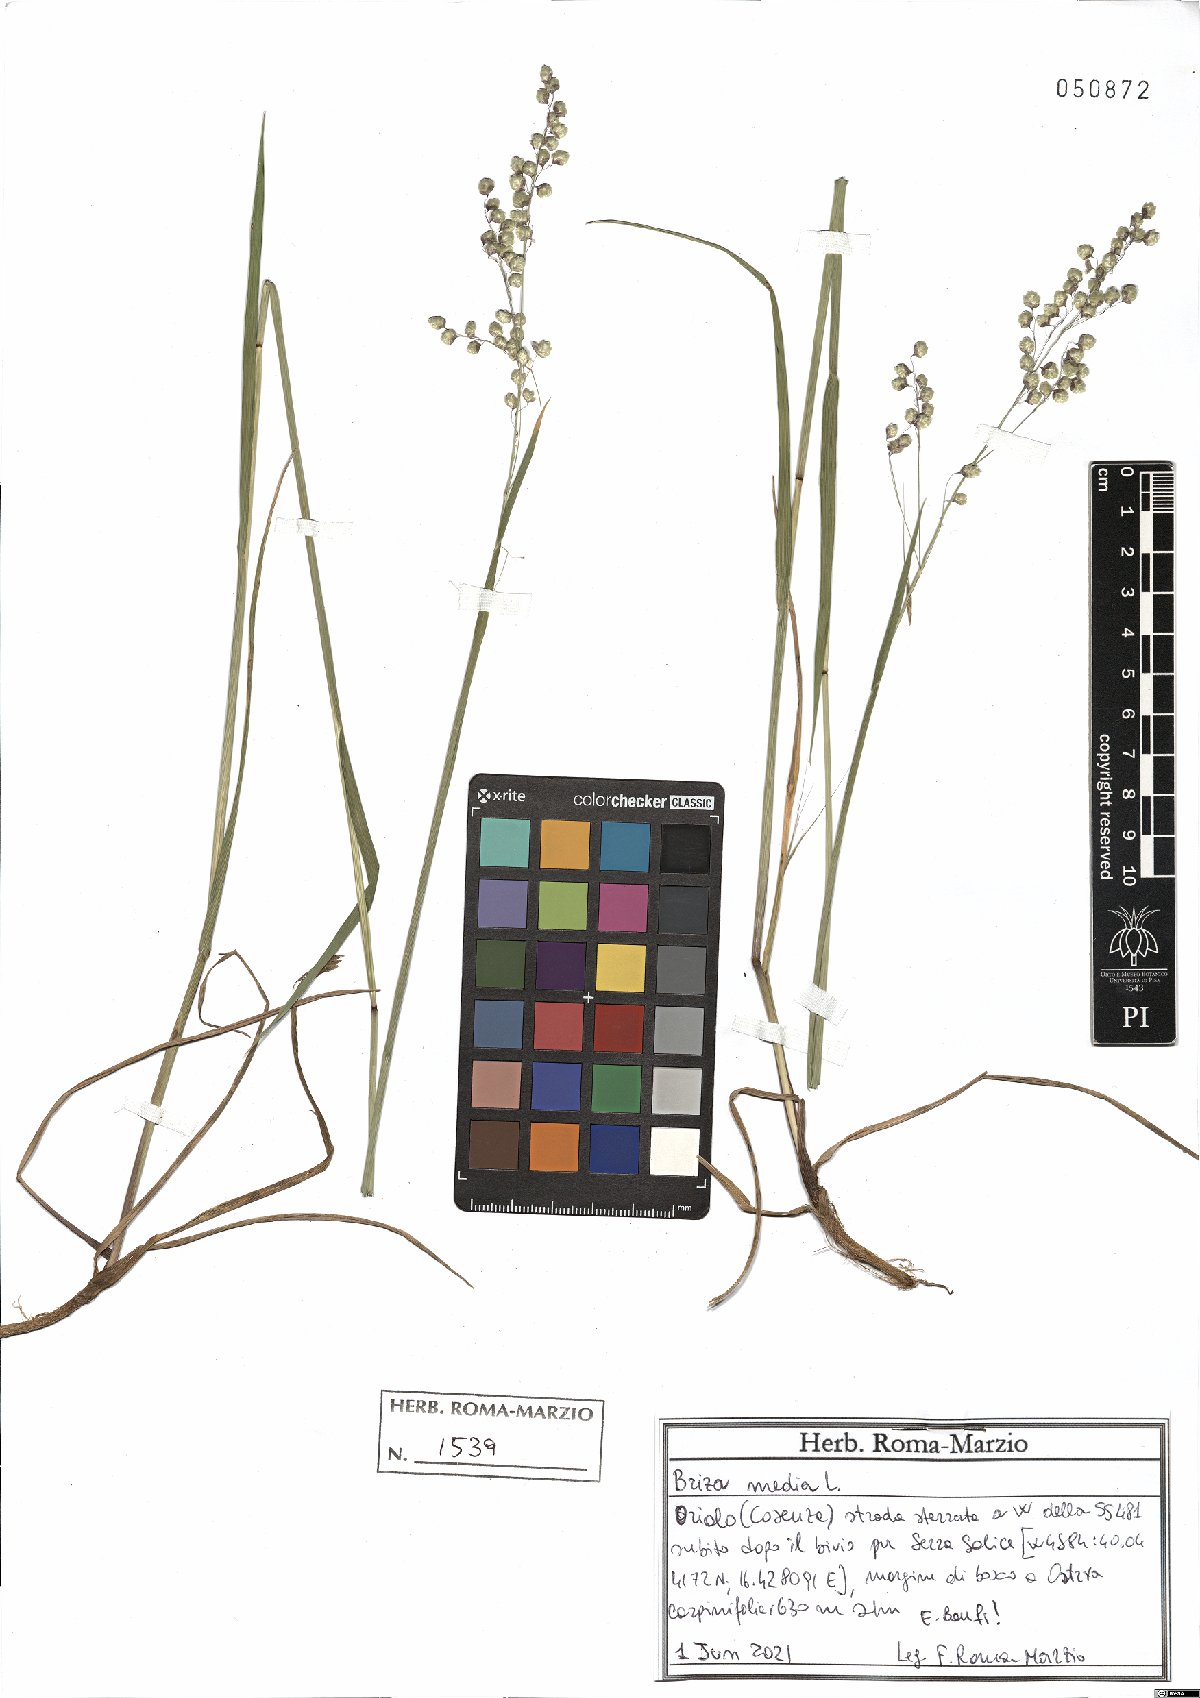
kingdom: Plantae
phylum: Tracheophyta
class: Liliopsida
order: Poales
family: Poaceae
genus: Briza
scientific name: Briza media
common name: Quaking grass
